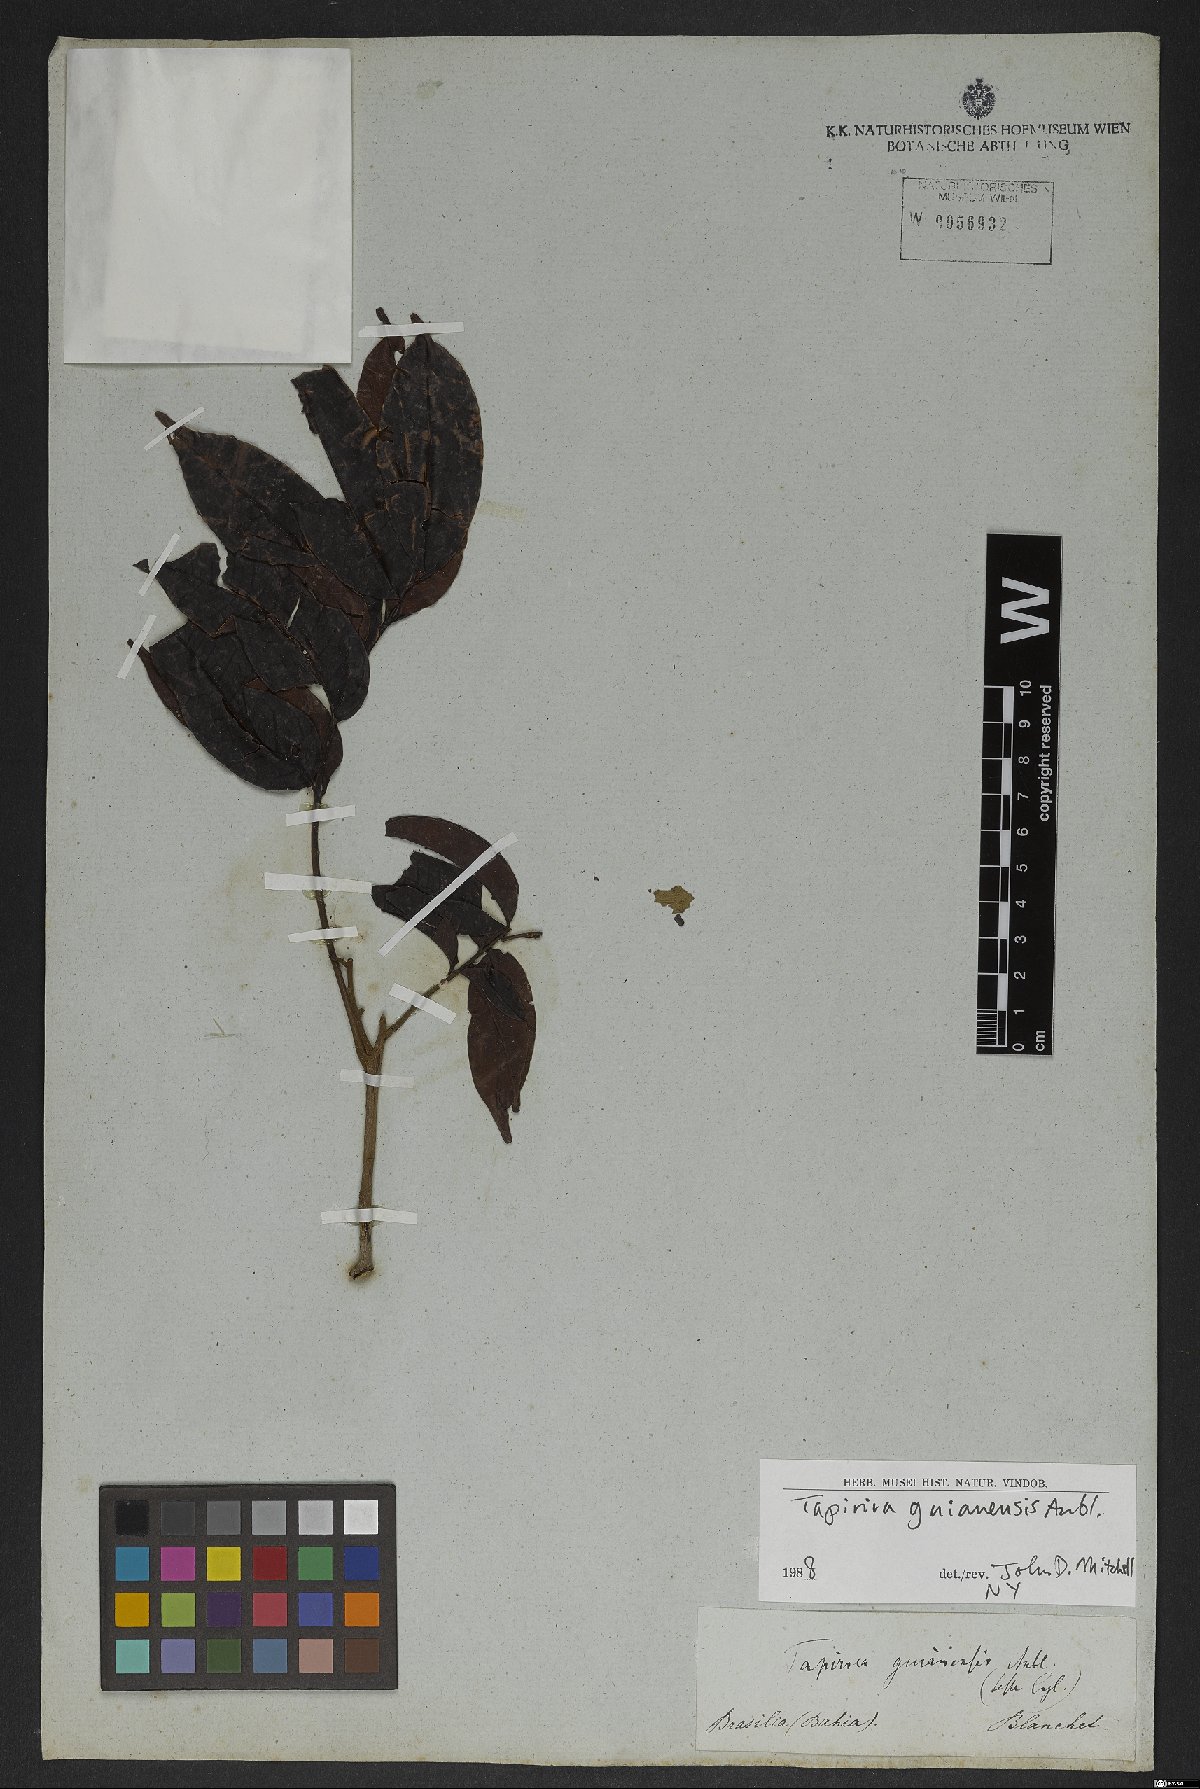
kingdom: Plantae
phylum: Tracheophyta
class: Magnoliopsida
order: Sapindales
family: Anacardiaceae
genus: Tapirira
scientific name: Tapirira guianensis
